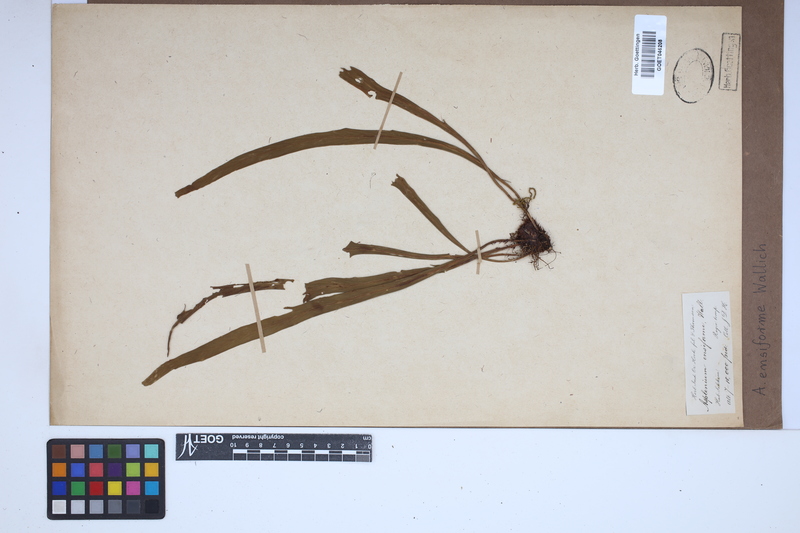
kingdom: Plantae
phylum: Tracheophyta
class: Polypodiopsida
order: Polypodiales
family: Aspleniaceae
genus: Asplenium
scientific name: Asplenium ensiforme
